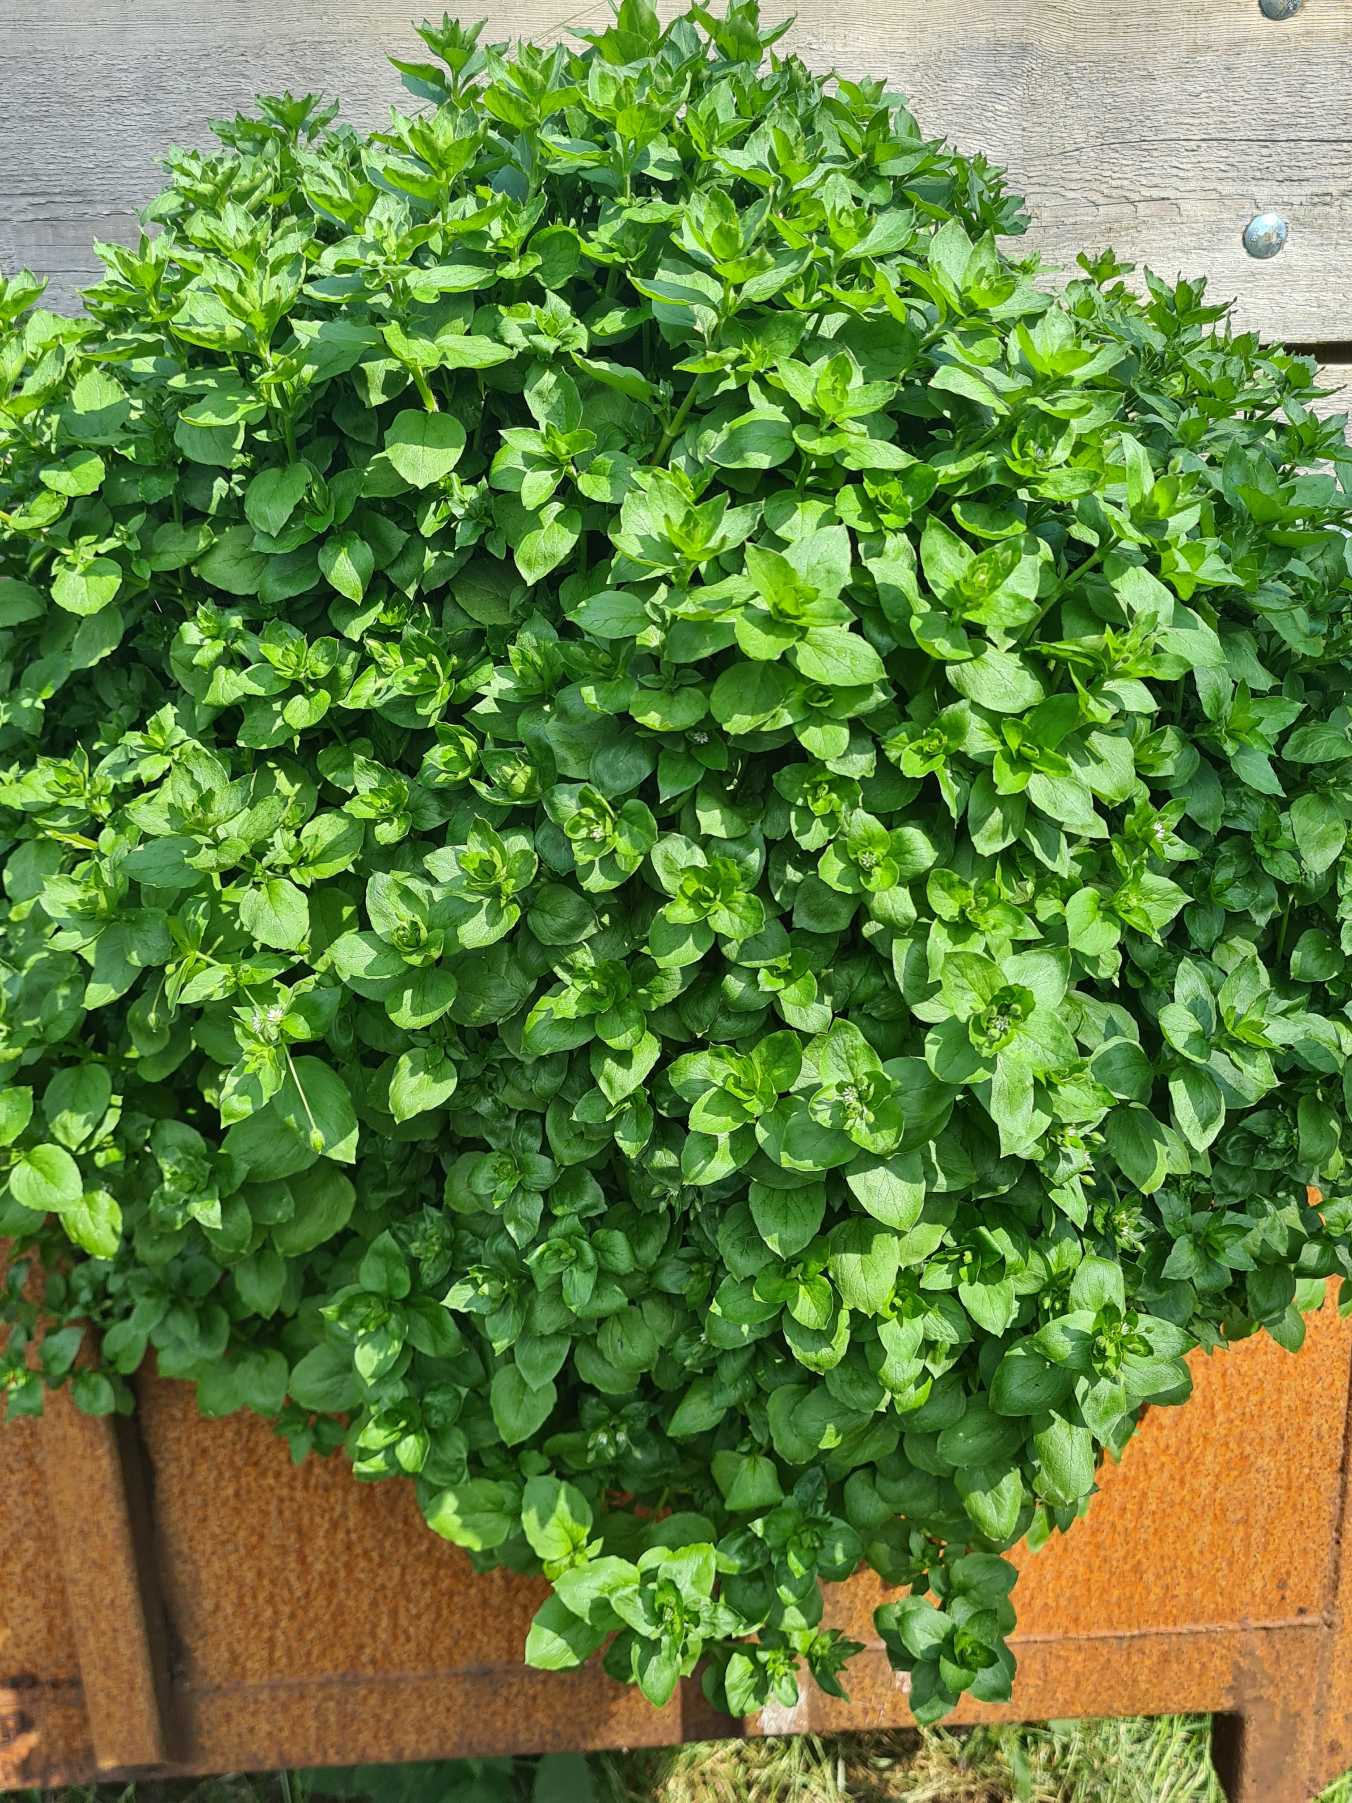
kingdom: Plantae
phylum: Tracheophyta
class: Magnoliopsida
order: Caryophyllales
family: Caryophyllaceae
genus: Stellaria
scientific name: Stellaria media
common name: Almindelig fuglegræs
